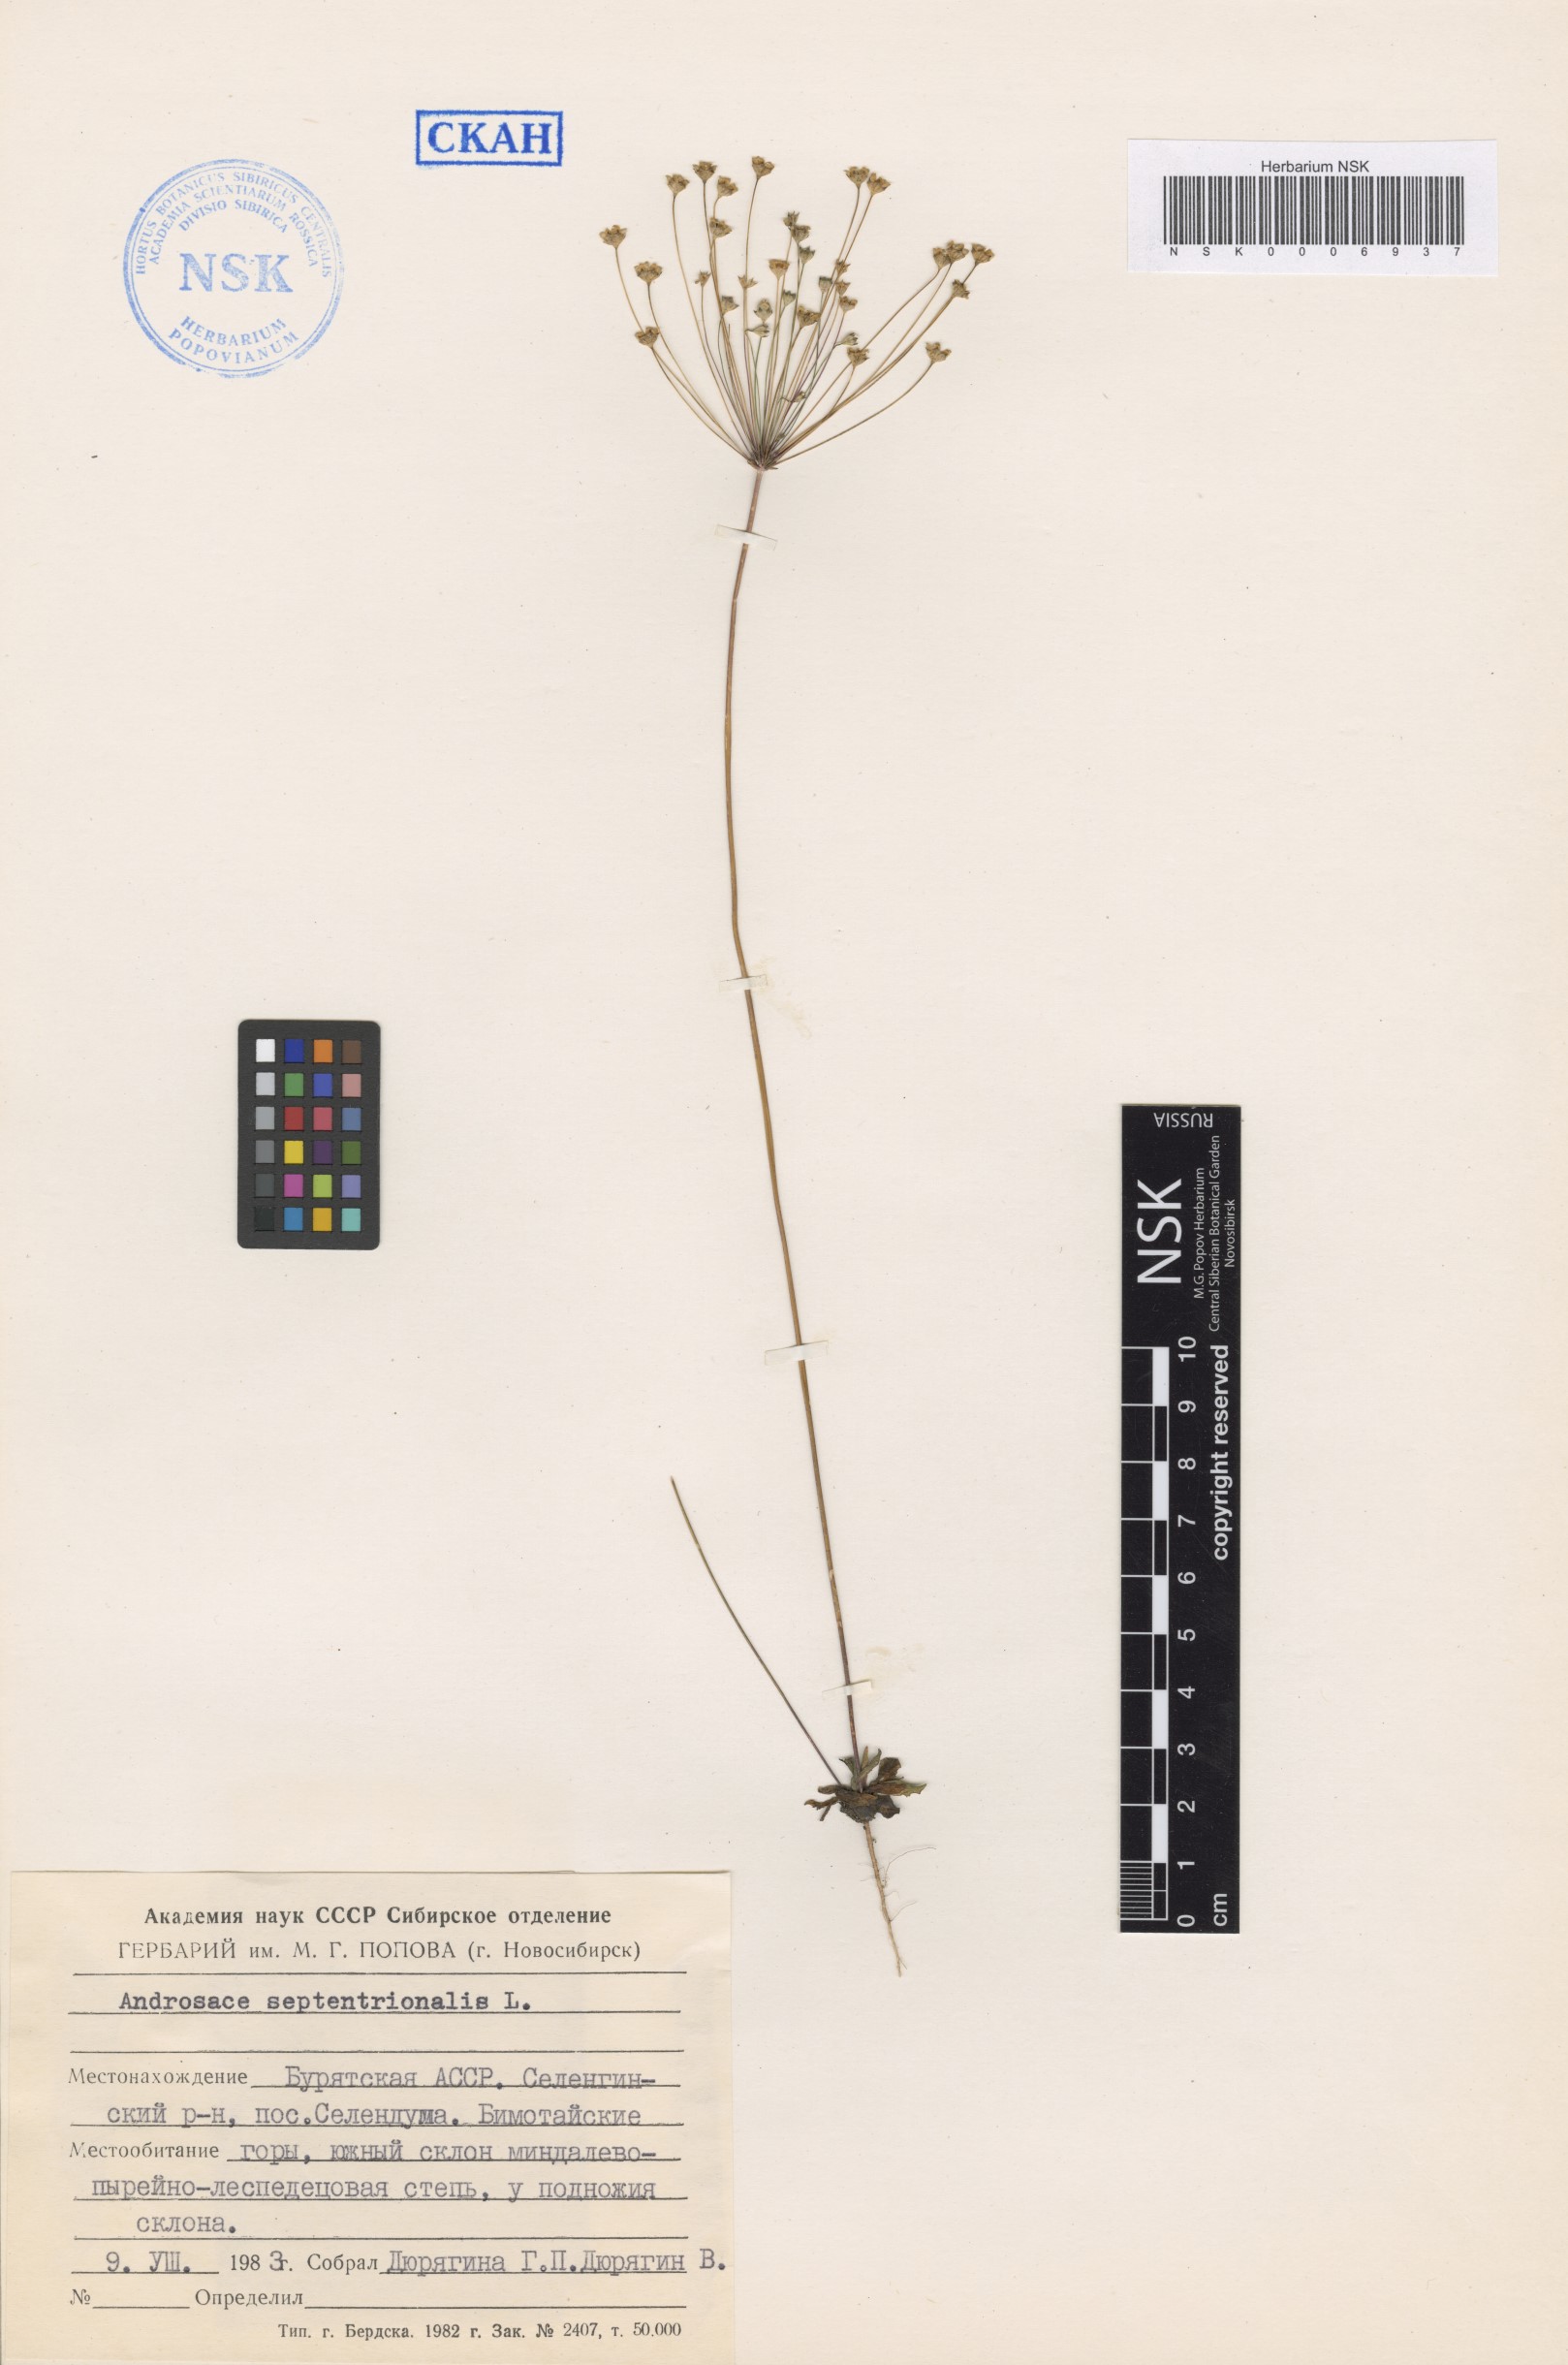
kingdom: Plantae
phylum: Tracheophyta
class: Magnoliopsida
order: Ericales
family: Primulaceae
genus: Androsace
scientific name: Androsace septentrionalis
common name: Hairy northern fairy-candelabra
